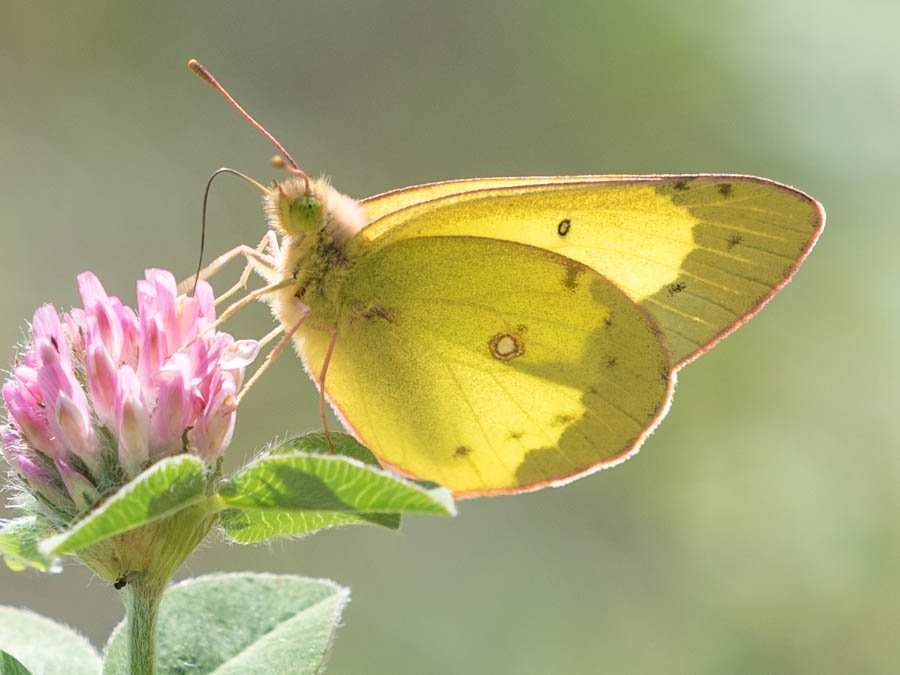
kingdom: Animalia
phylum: Arthropoda
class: Insecta
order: Lepidoptera
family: Pieridae
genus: Colias
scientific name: Colias philodice
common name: Clouded Sulphur
